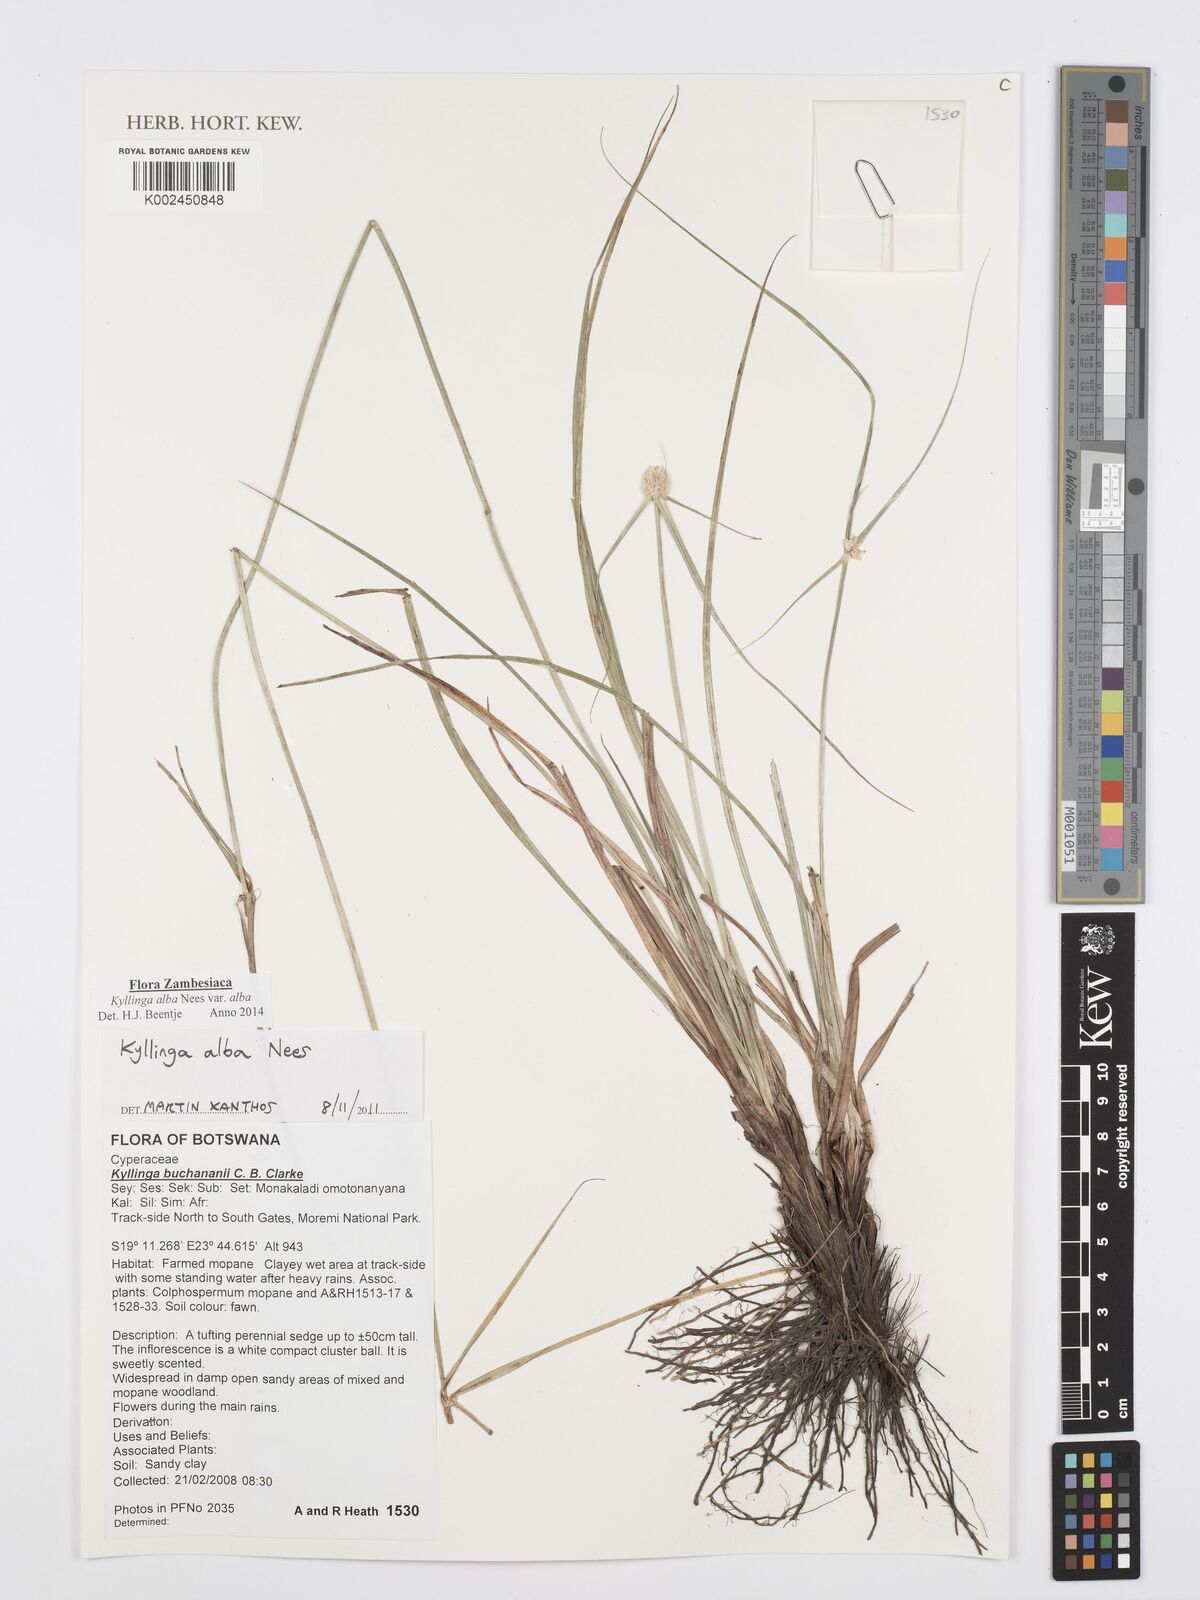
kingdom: Plantae
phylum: Tracheophyta
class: Liliopsida
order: Poales
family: Cyperaceae
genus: Cyperus
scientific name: Cyperus
